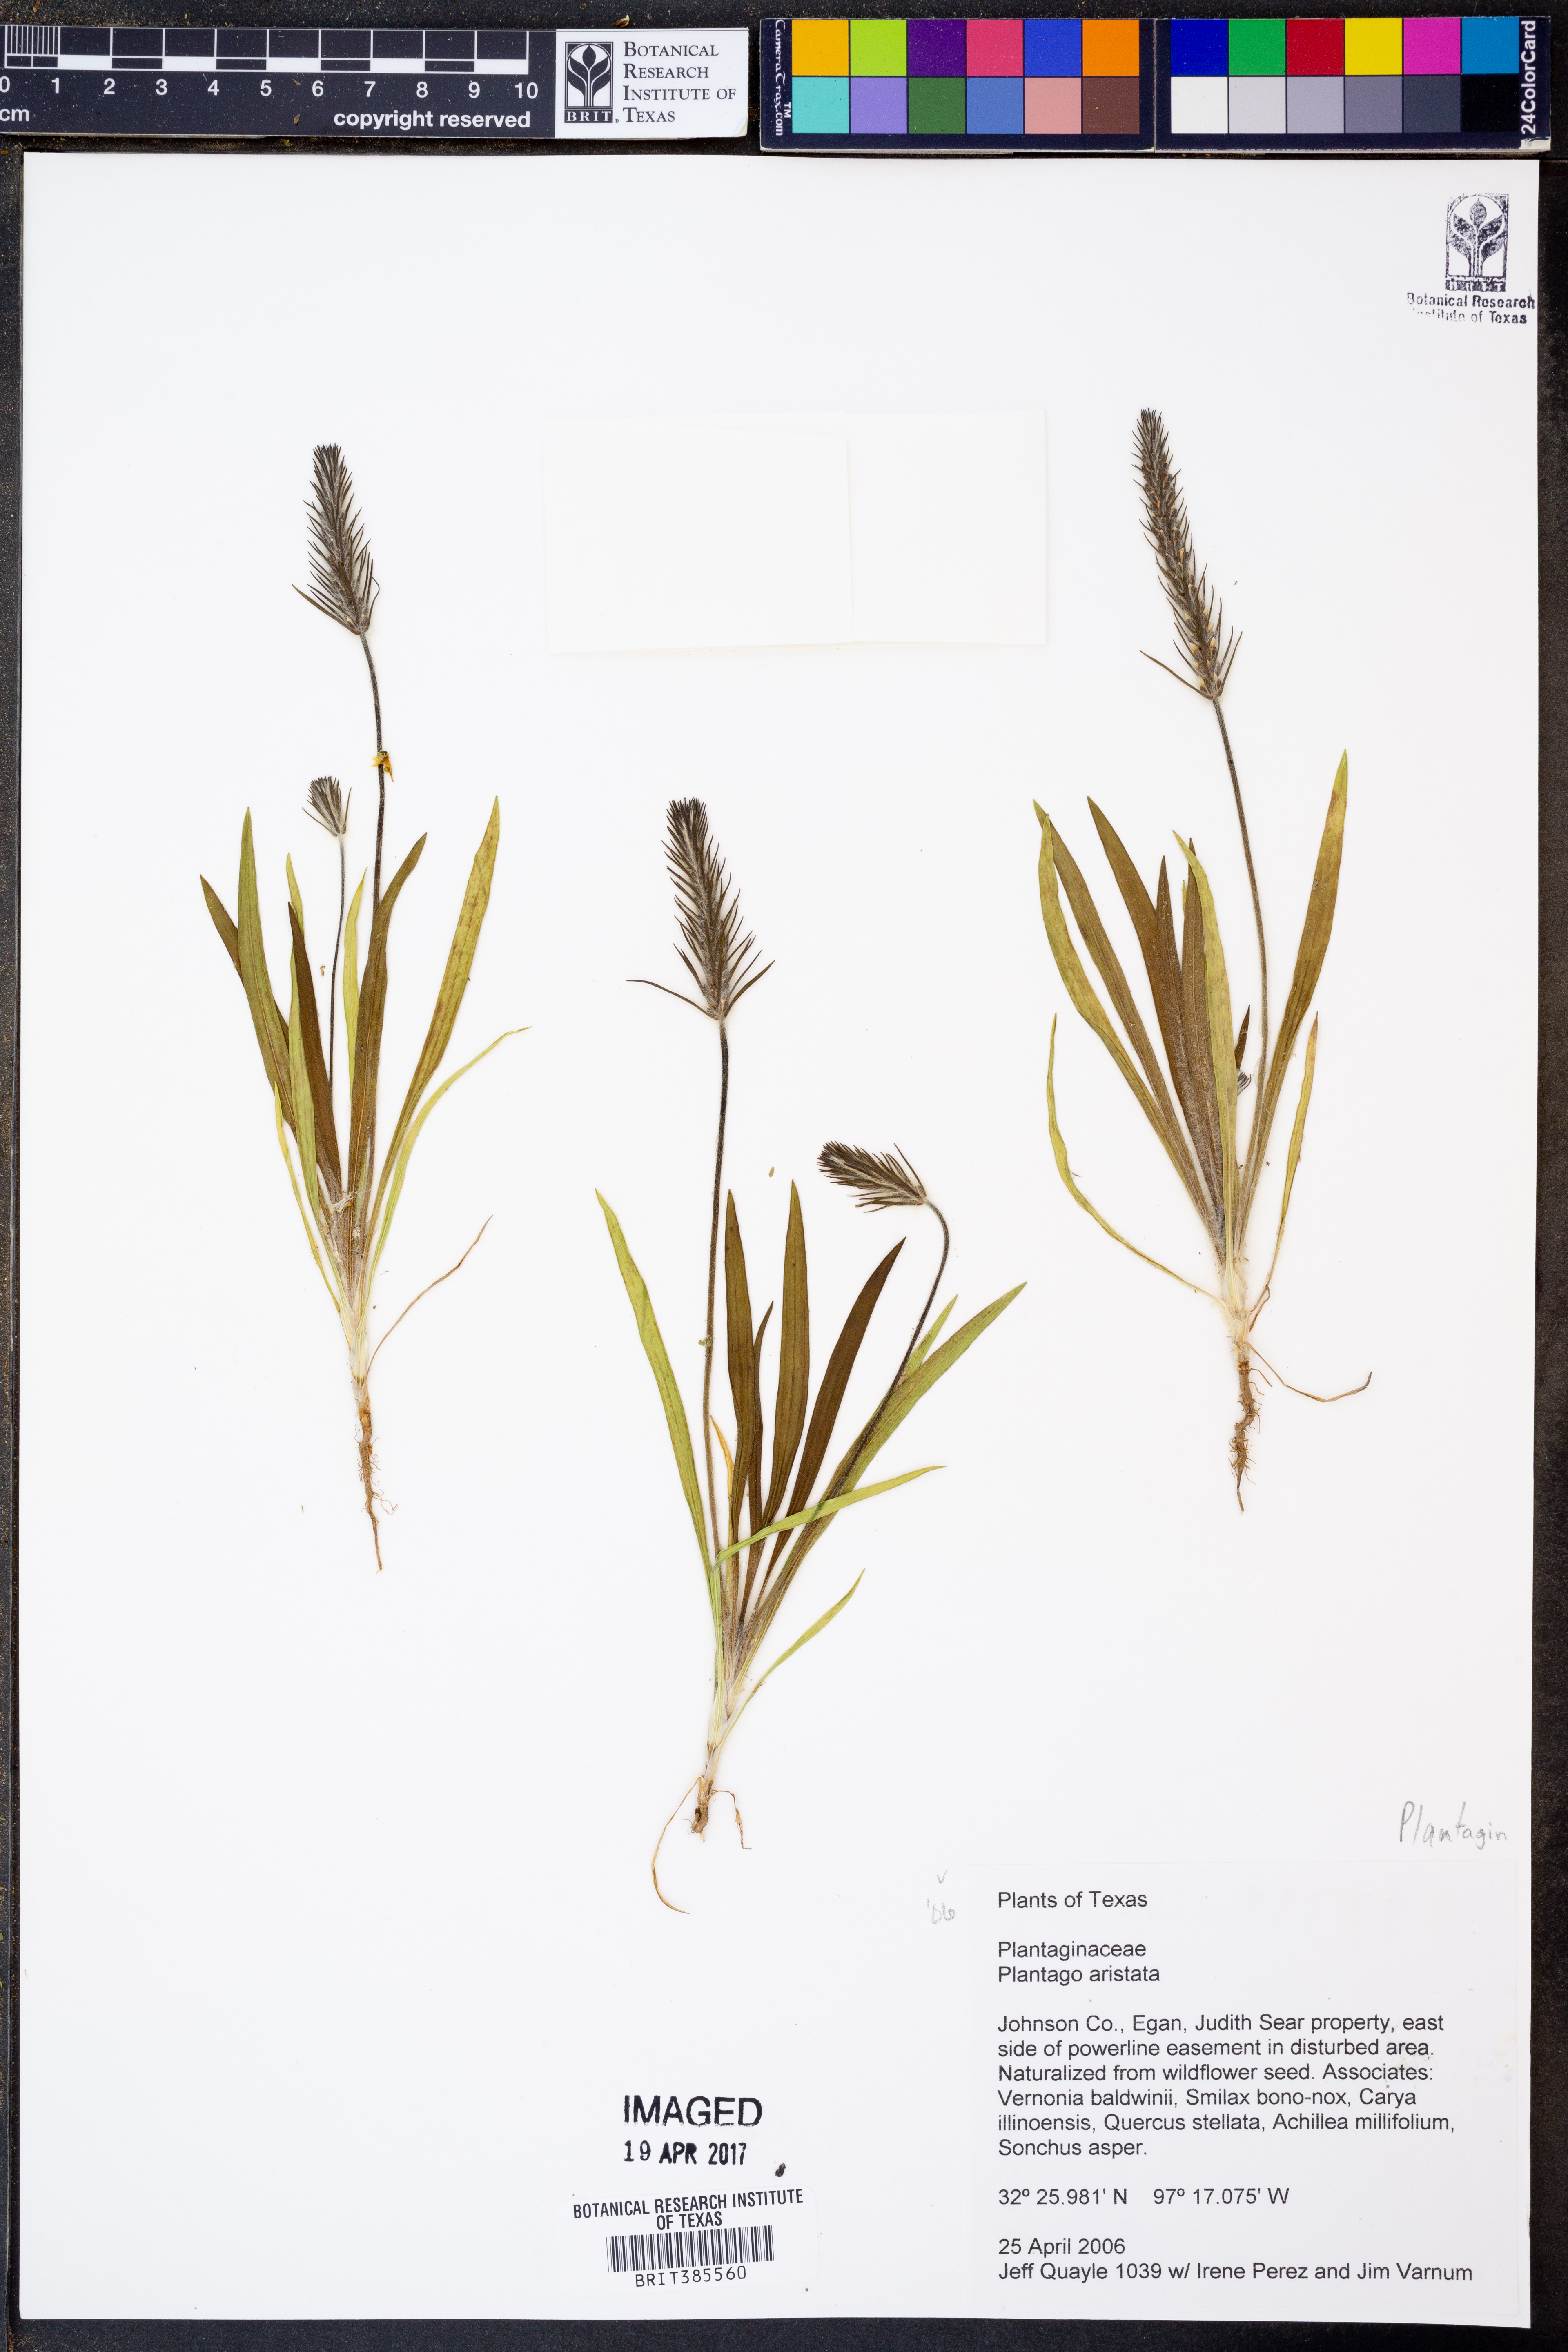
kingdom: Plantae
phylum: Tracheophyta
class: Magnoliopsida
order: Lamiales
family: Plantaginaceae
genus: Plantago
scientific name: Plantago aristata
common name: Bracted plantain
